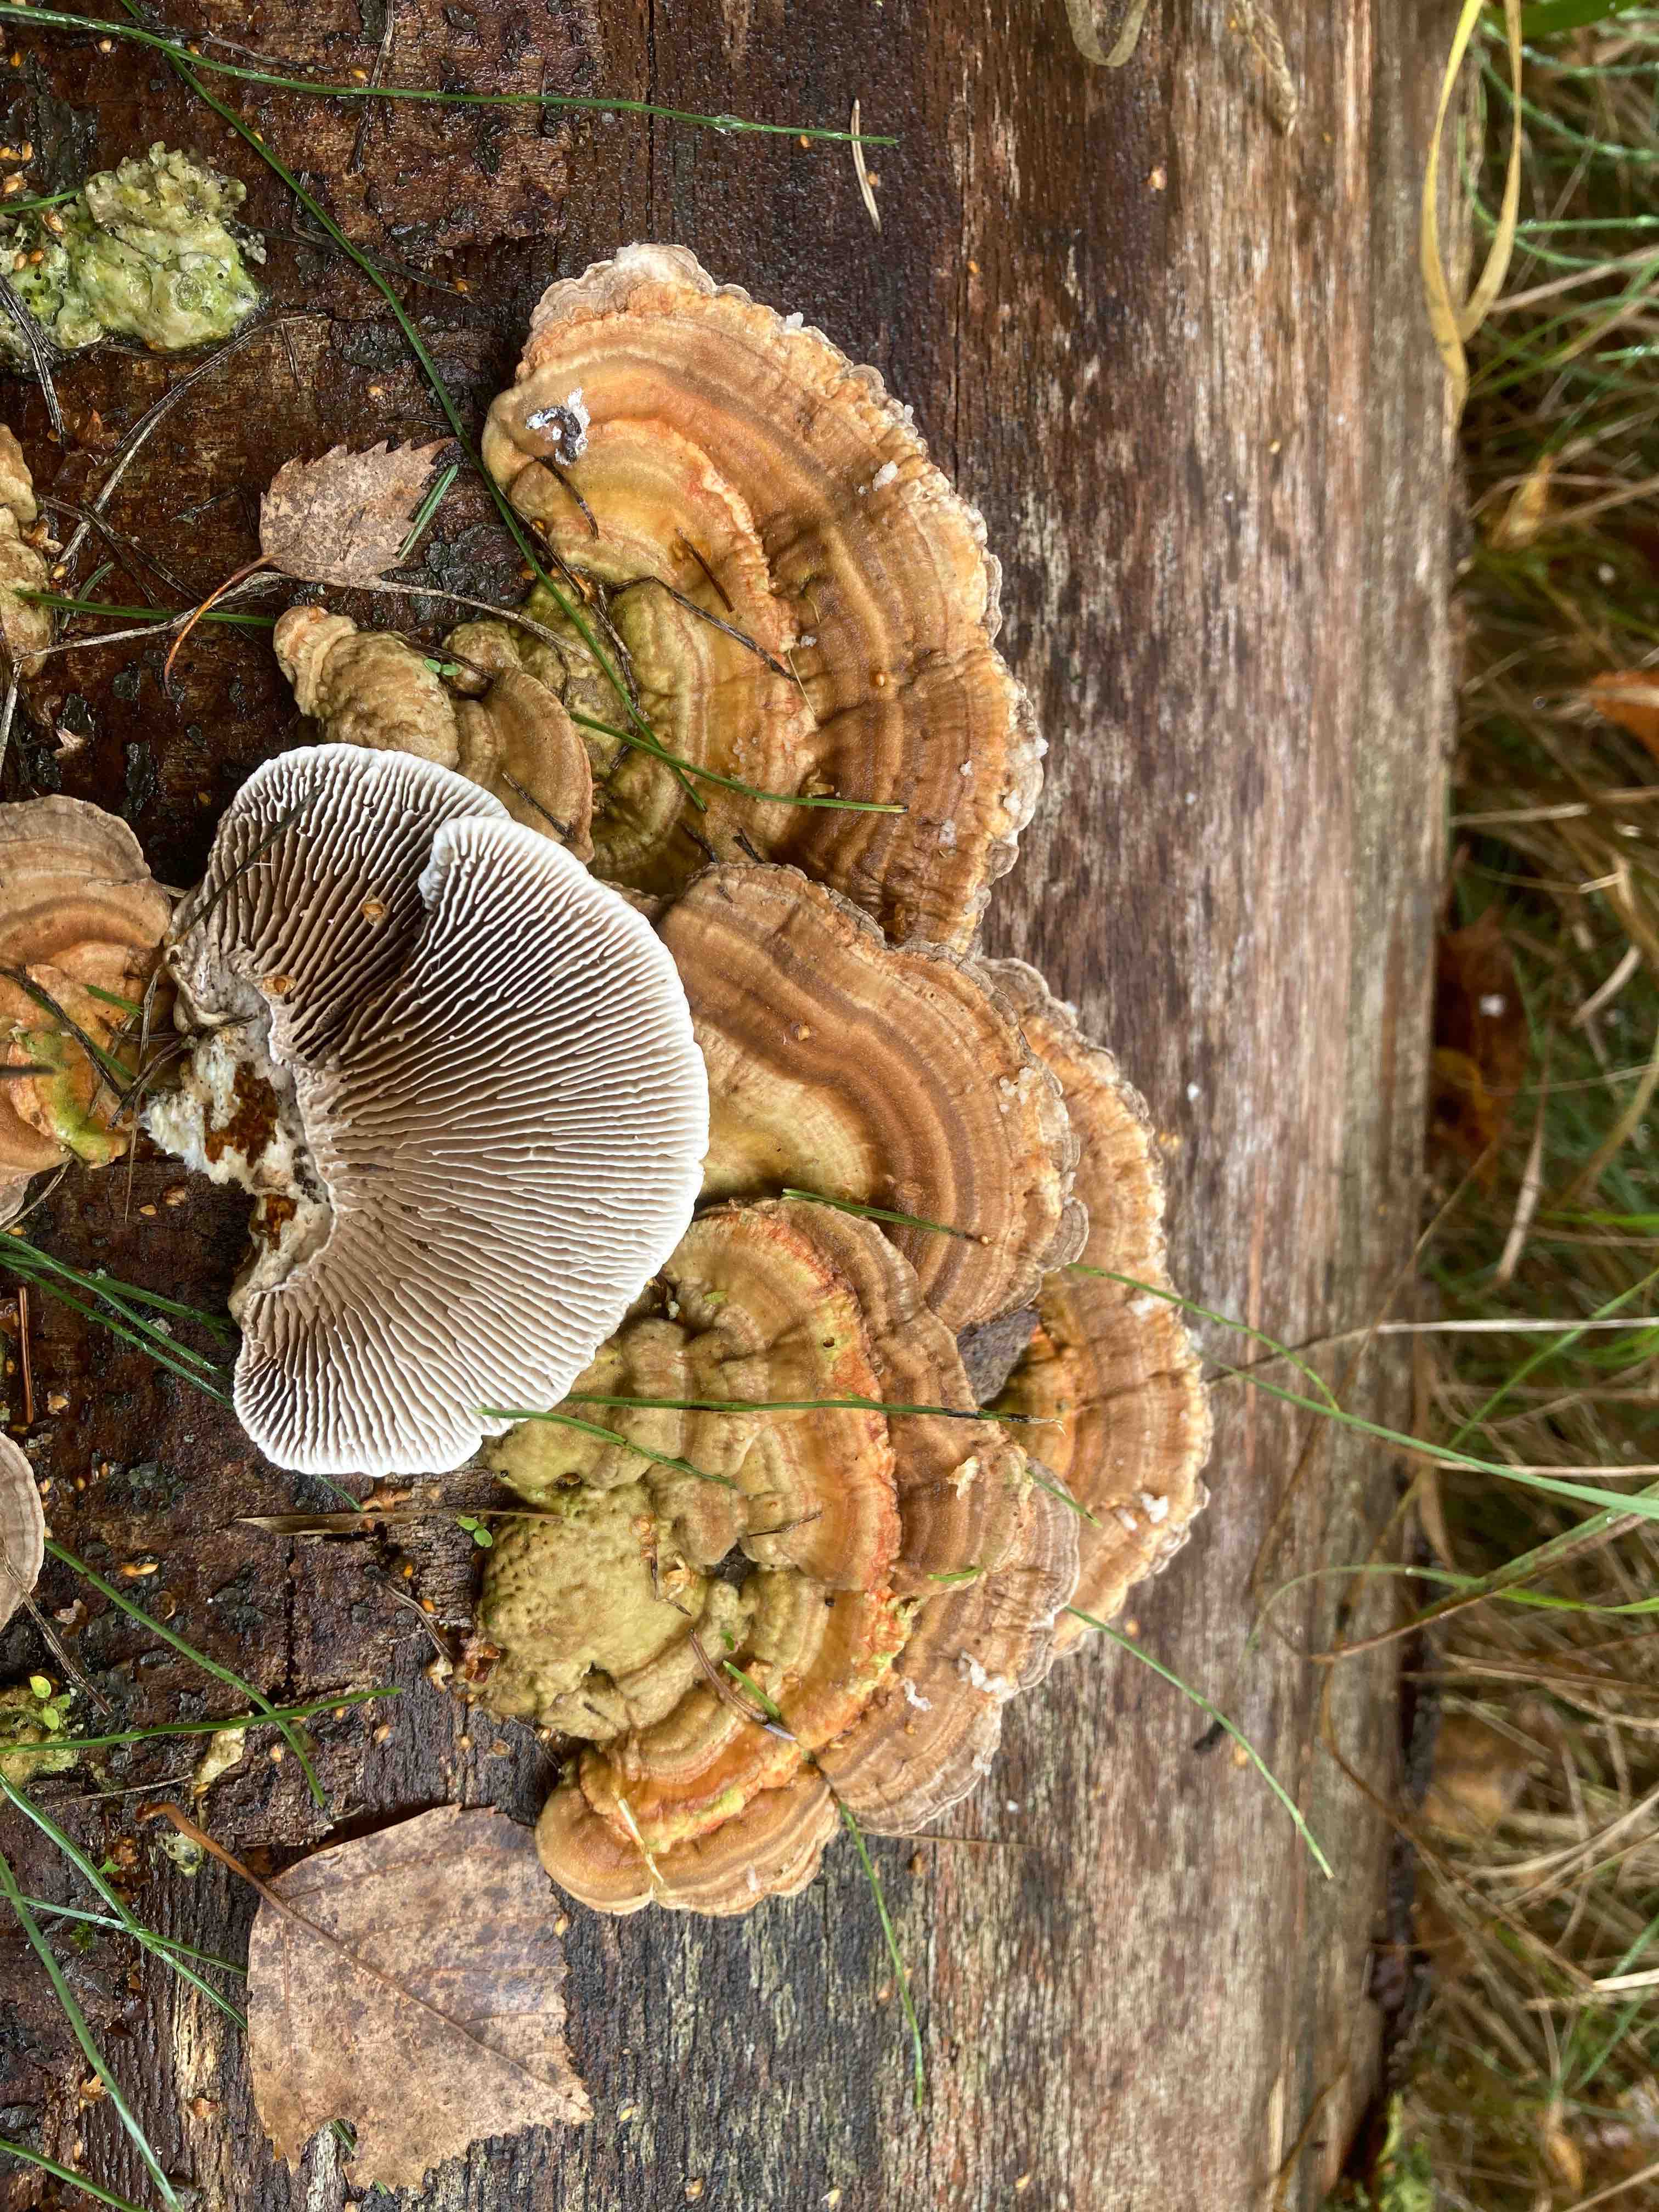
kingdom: Fungi
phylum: Basidiomycota
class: Agaricomycetes
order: Polyporales
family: Polyporaceae
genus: Lenzites
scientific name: Lenzites betulinus
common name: birke-læderporesvamp
